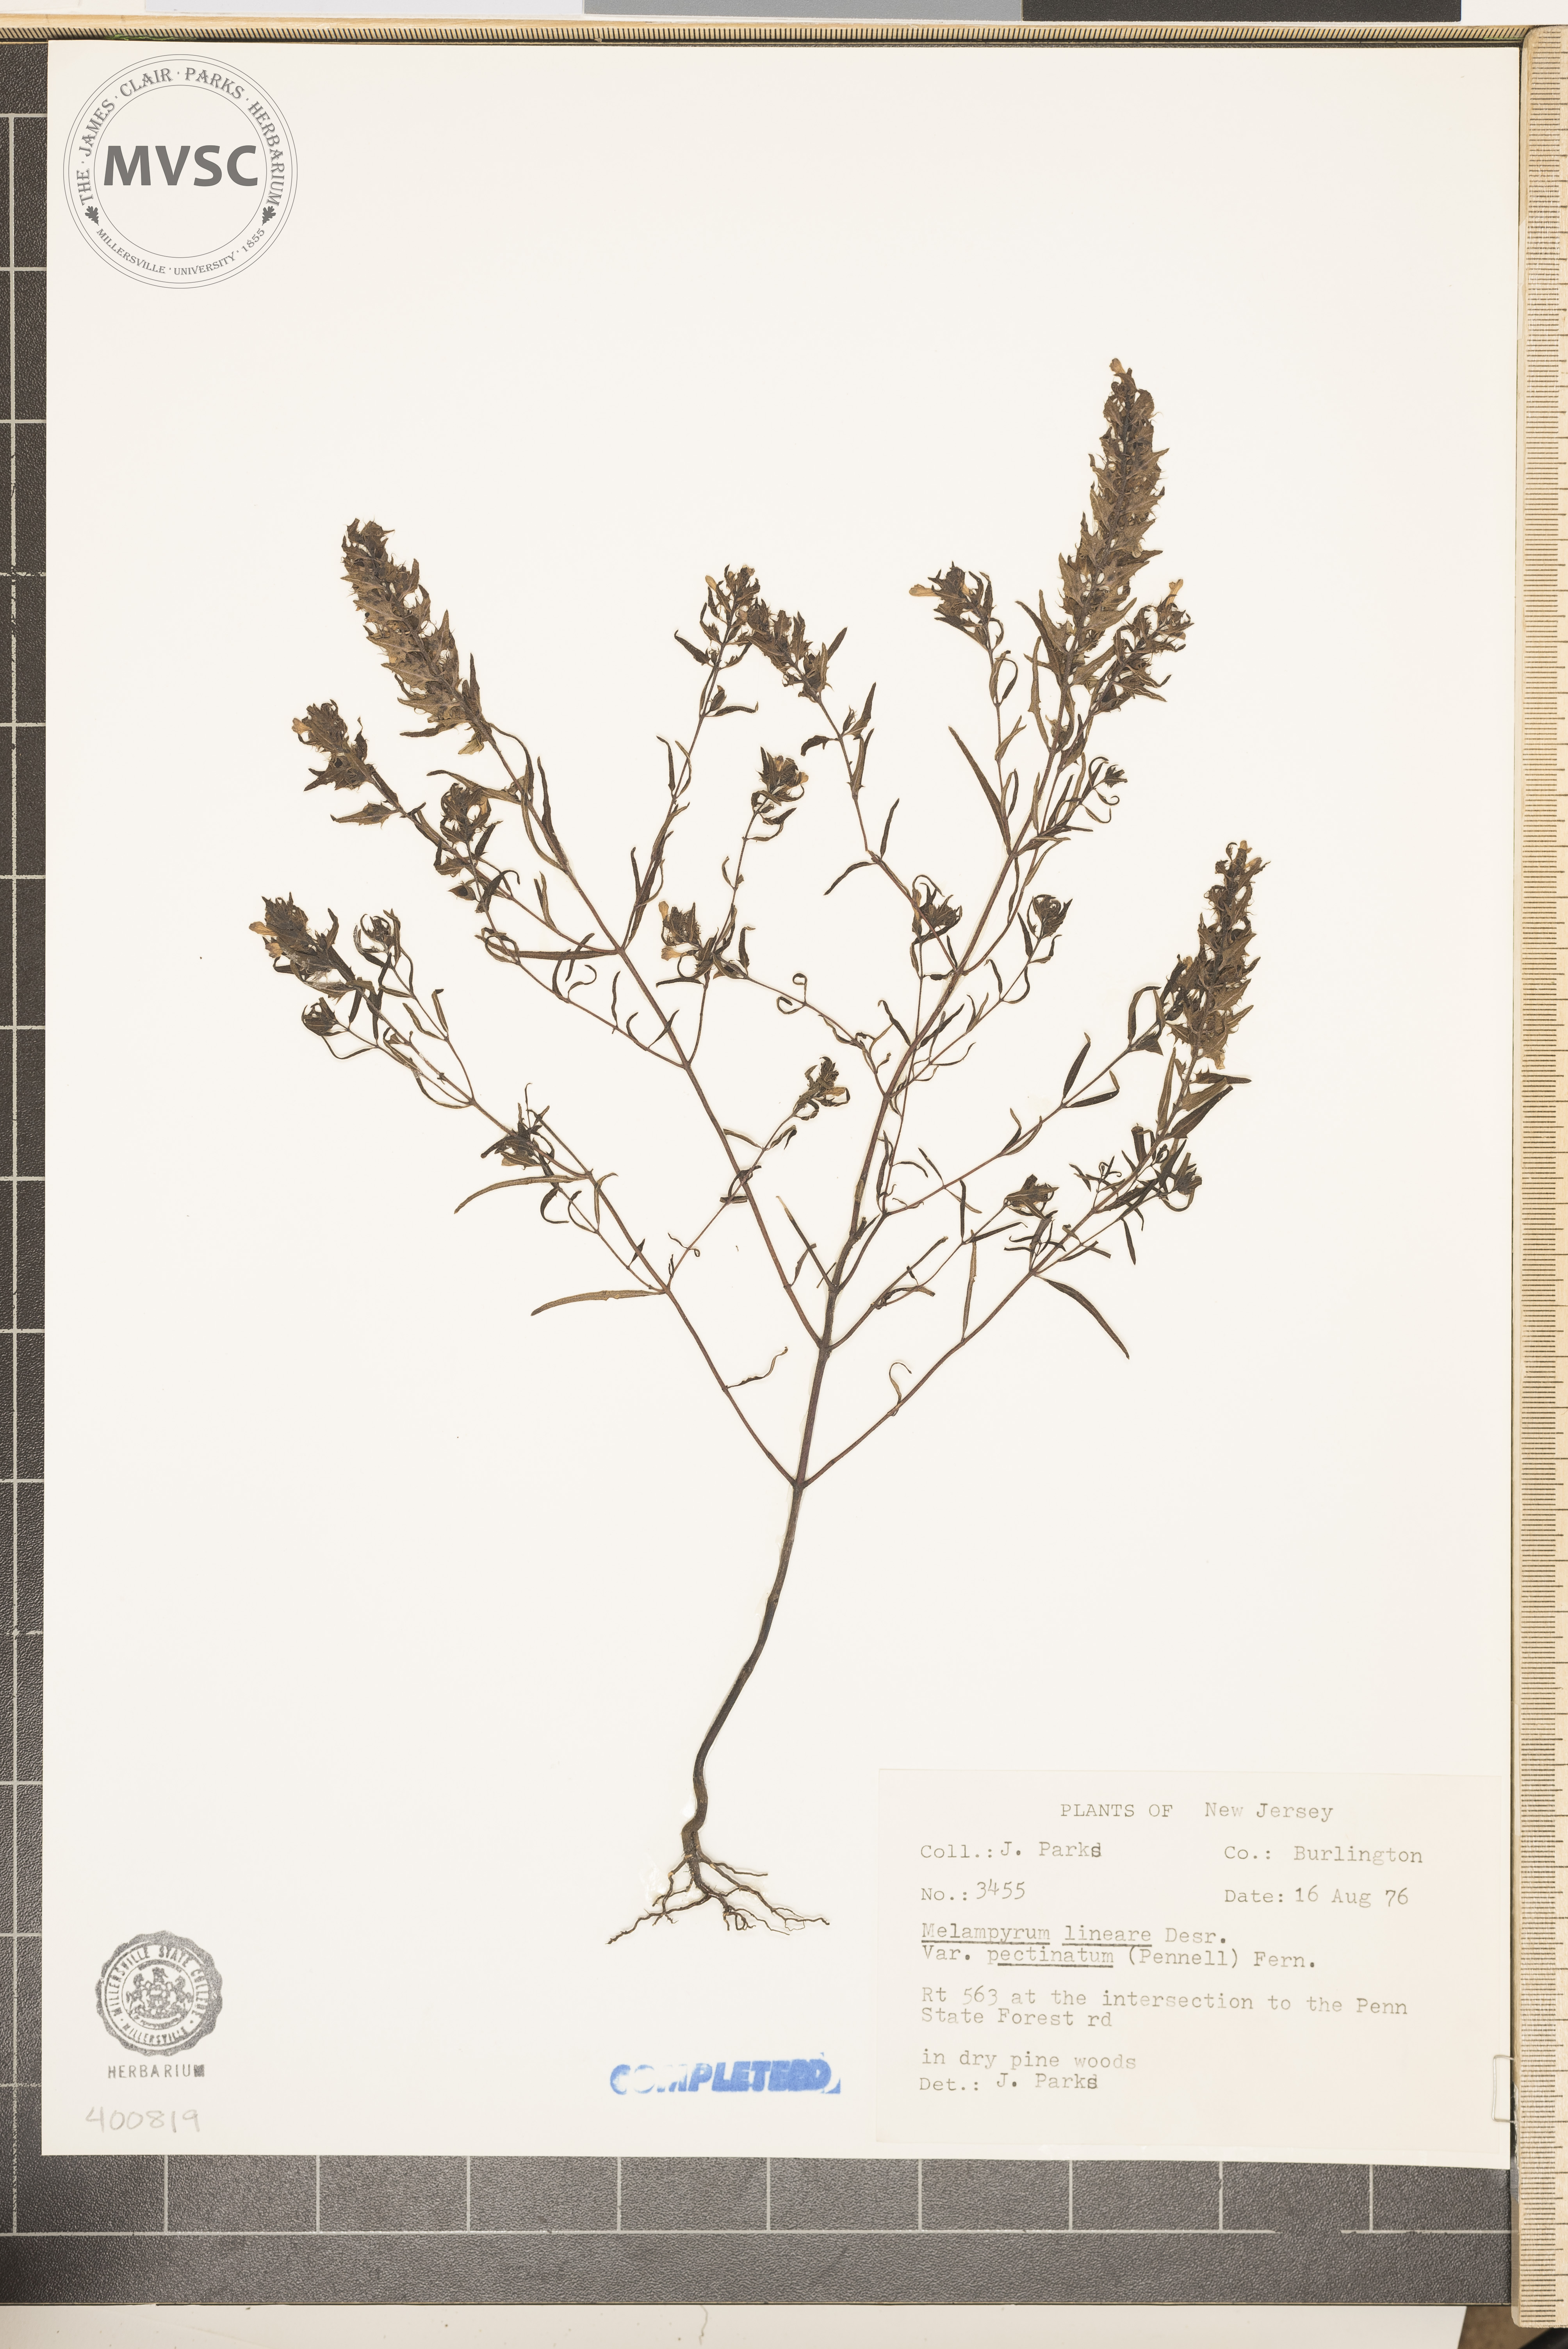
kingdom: Plantae
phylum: Tracheophyta
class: Magnoliopsida
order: Lamiales
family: Orobanchaceae
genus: Melampyrum
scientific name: Melampyrum lineare
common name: American cow-wheat
